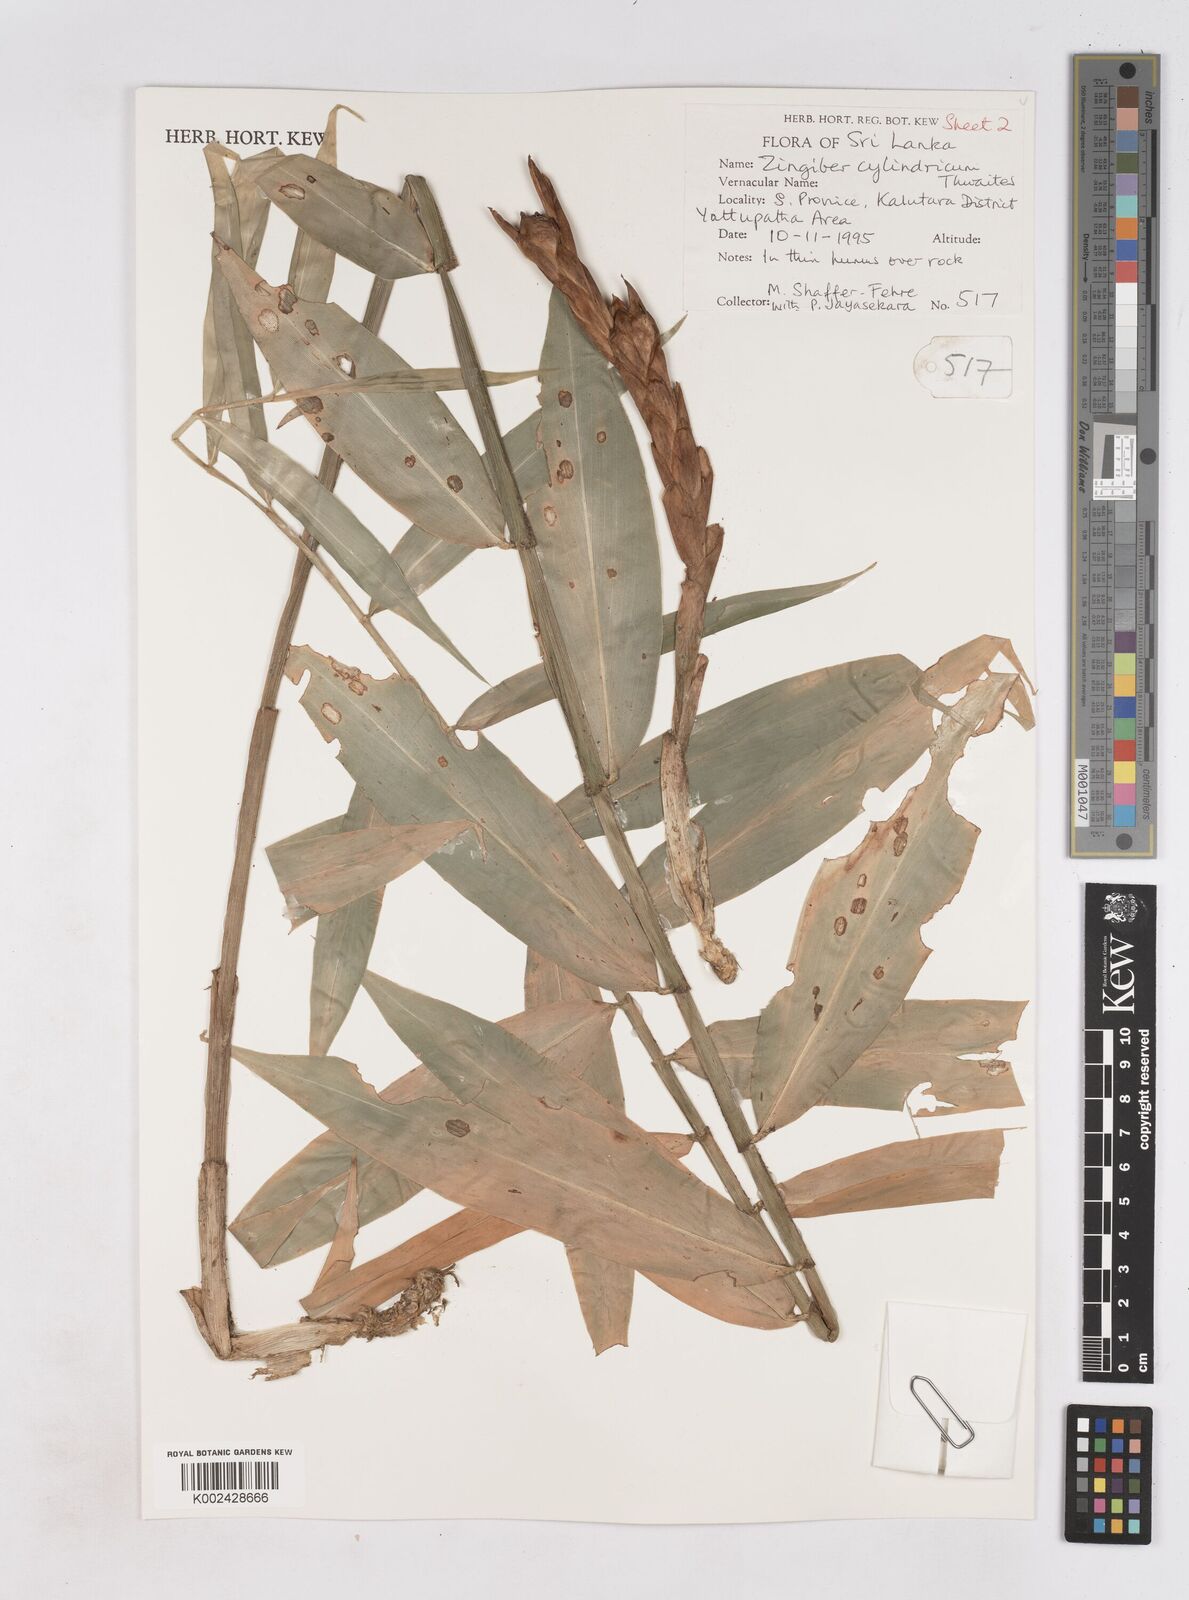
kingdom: Plantae
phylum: Tracheophyta
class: Liliopsida
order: Zingiberales
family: Zingiberaceae
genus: Zingiber
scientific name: Zingiber cylindricum
